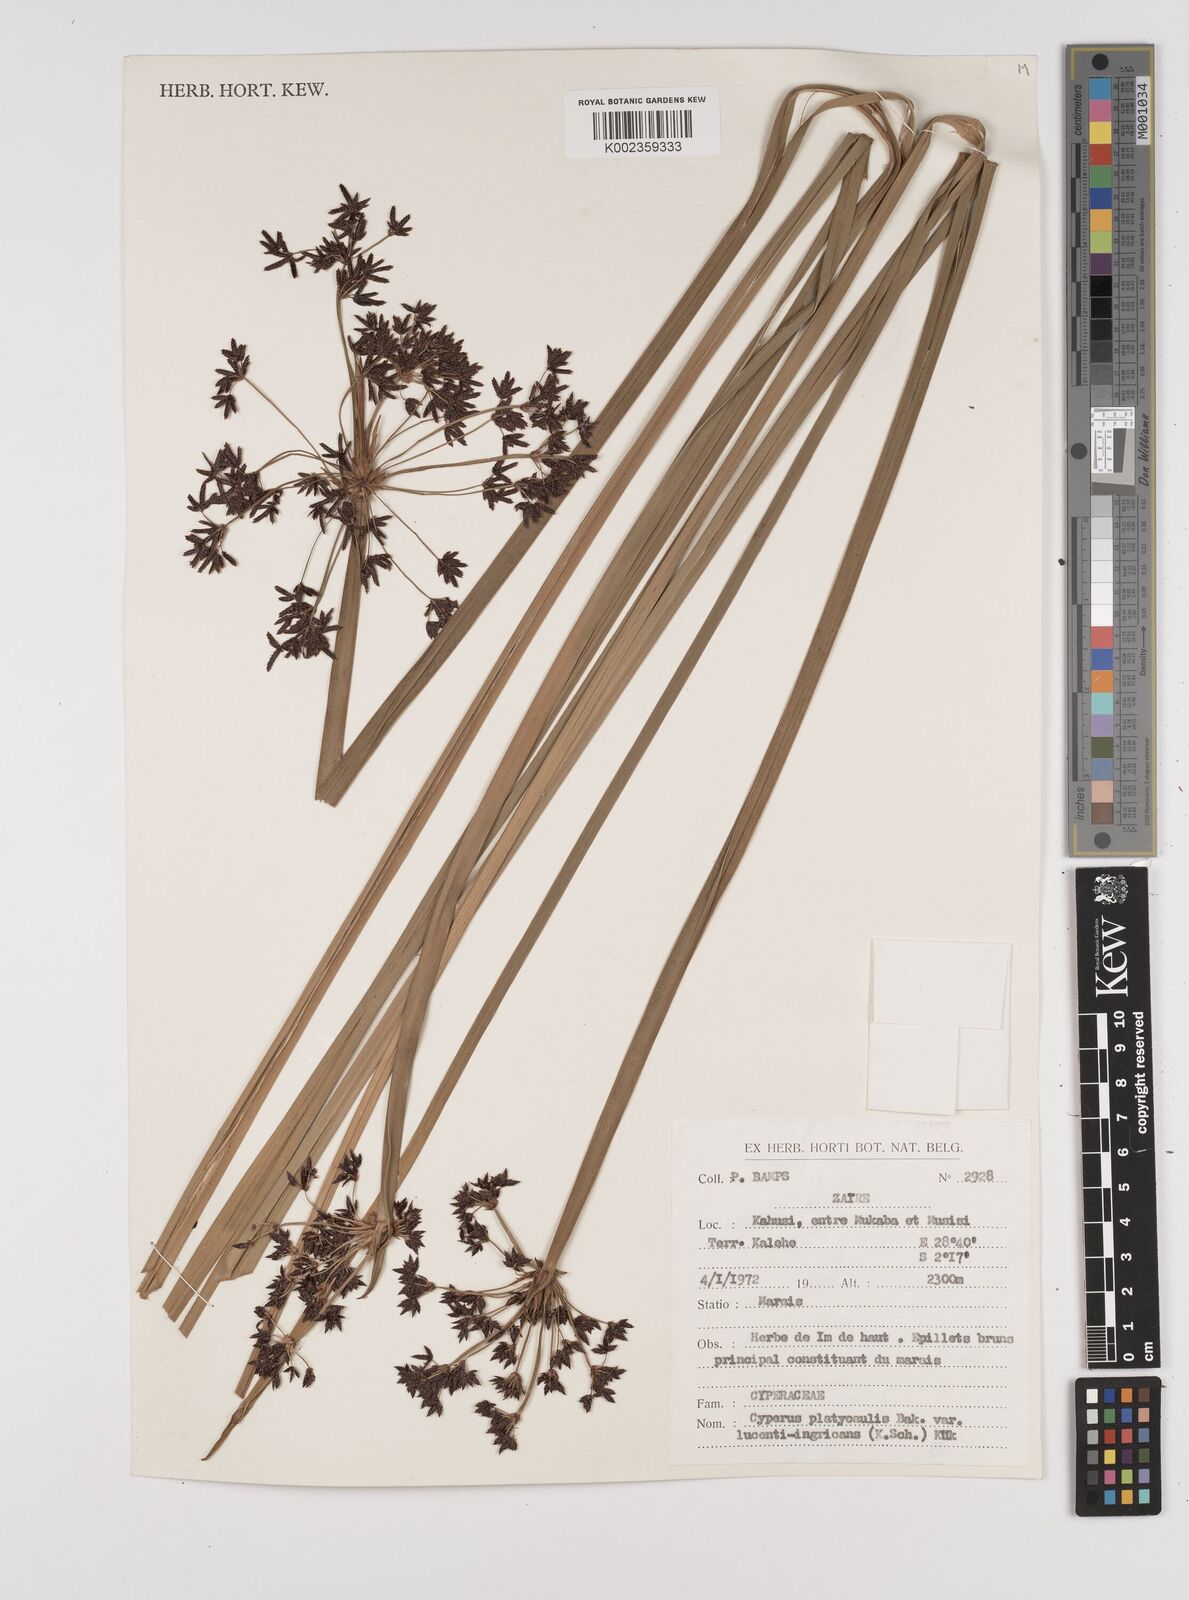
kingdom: Plantae
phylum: Tracheophyta
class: Liliopsida
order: Poales
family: Cyperaceae
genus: Cyperus
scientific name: Cyperus platycaulis
